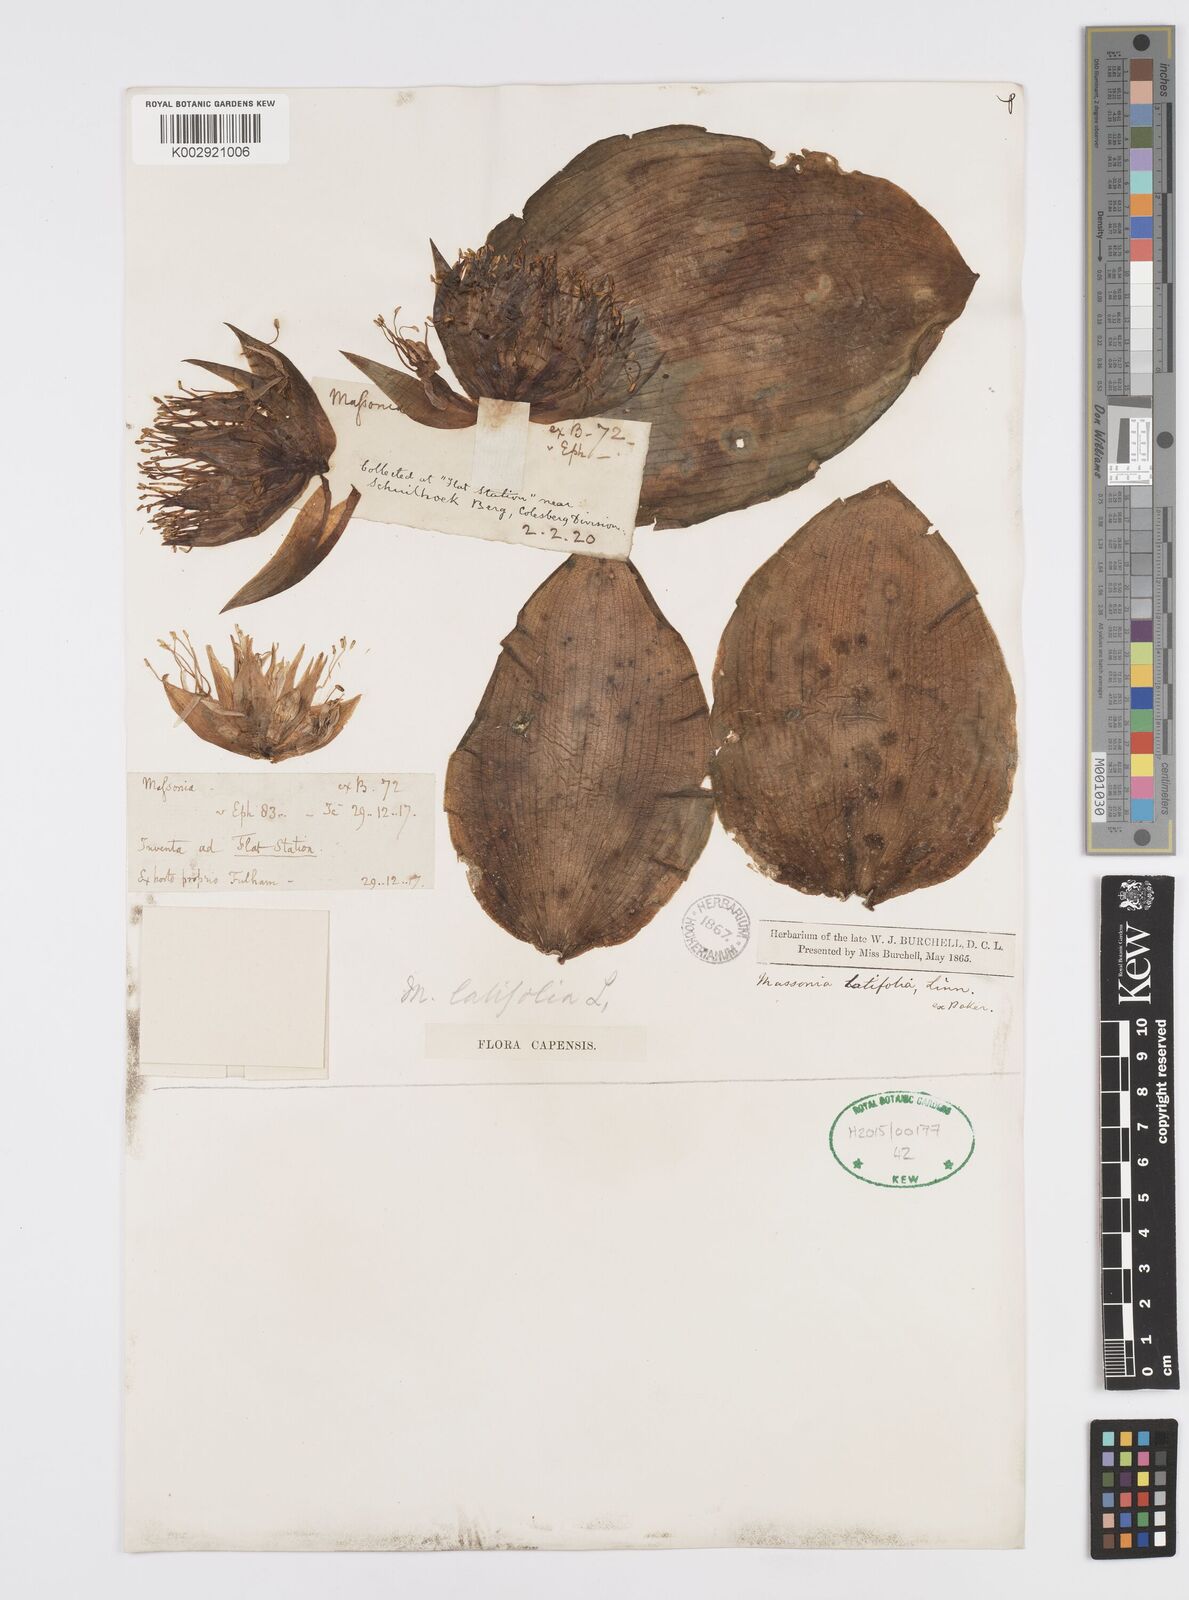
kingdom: Plantae
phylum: Tracheophyta
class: Liliopsida
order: Asparagales
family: Asparagaceae
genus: Massonia
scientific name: Massonia
